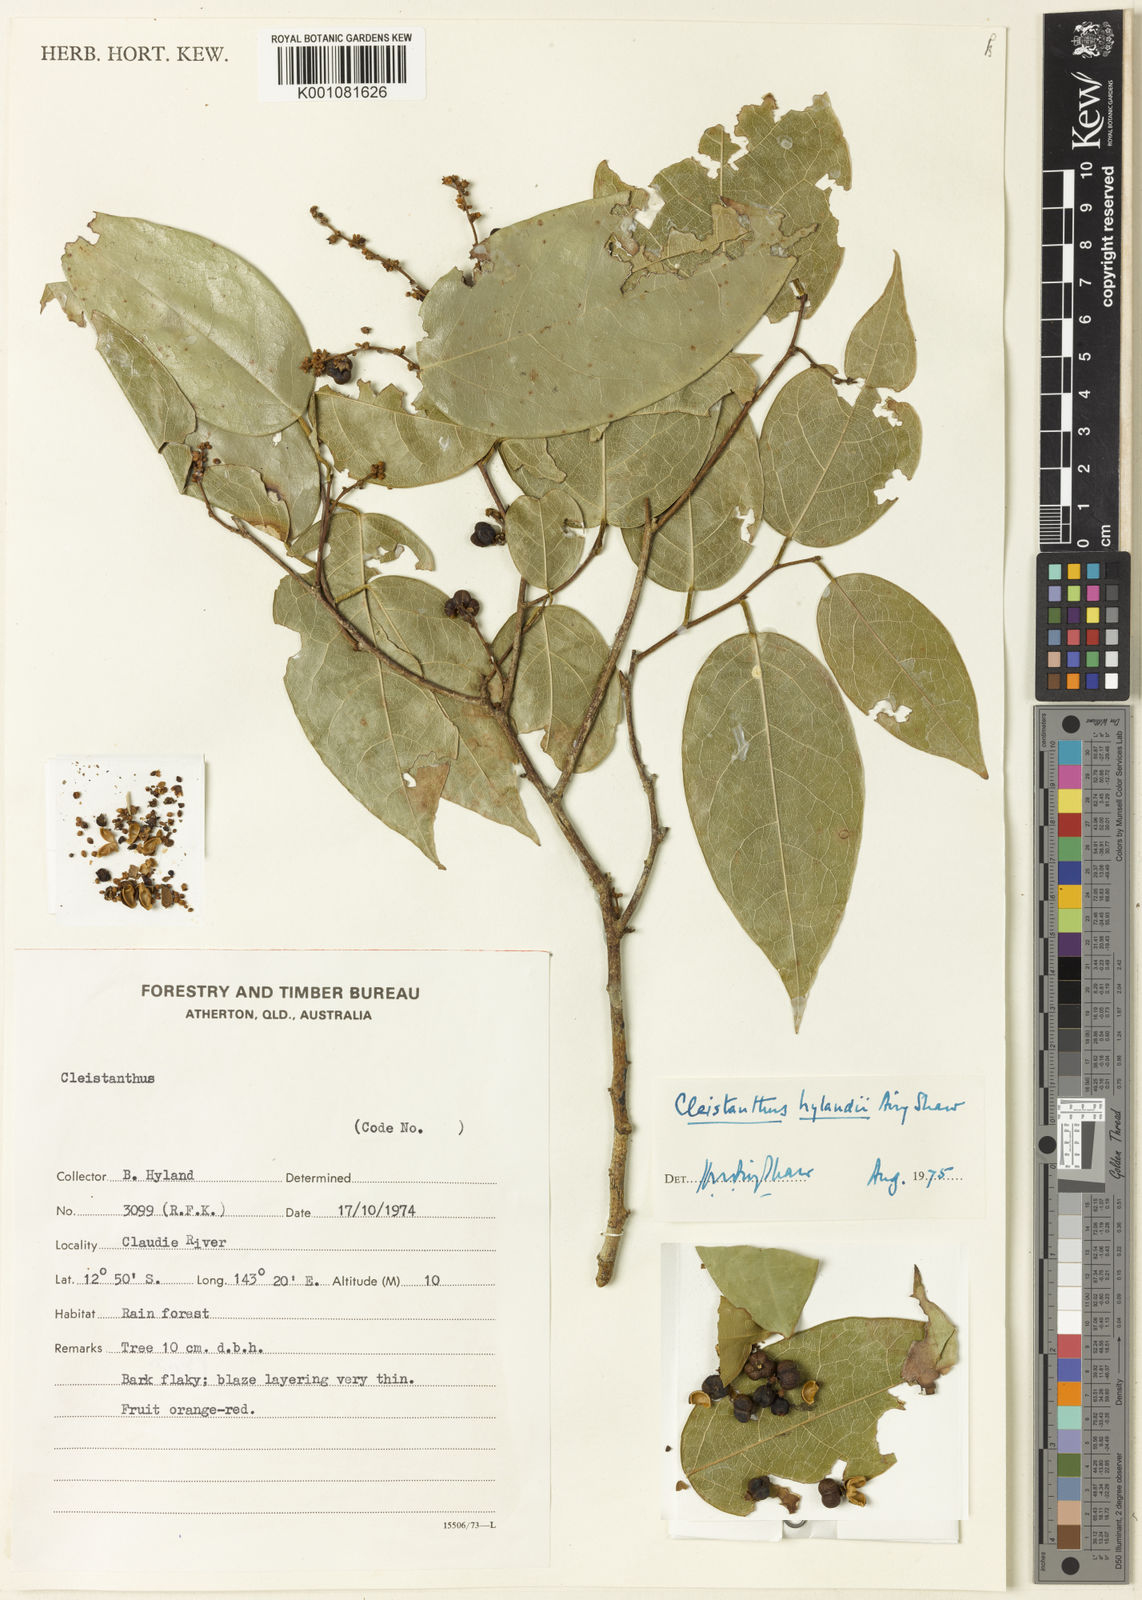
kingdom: Plantae
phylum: Tracheophyta
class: Magnoliopsida
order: Malpighiales
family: Phyllanthaceae
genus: Cleistanthus
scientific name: Cleistanthus hylandii
